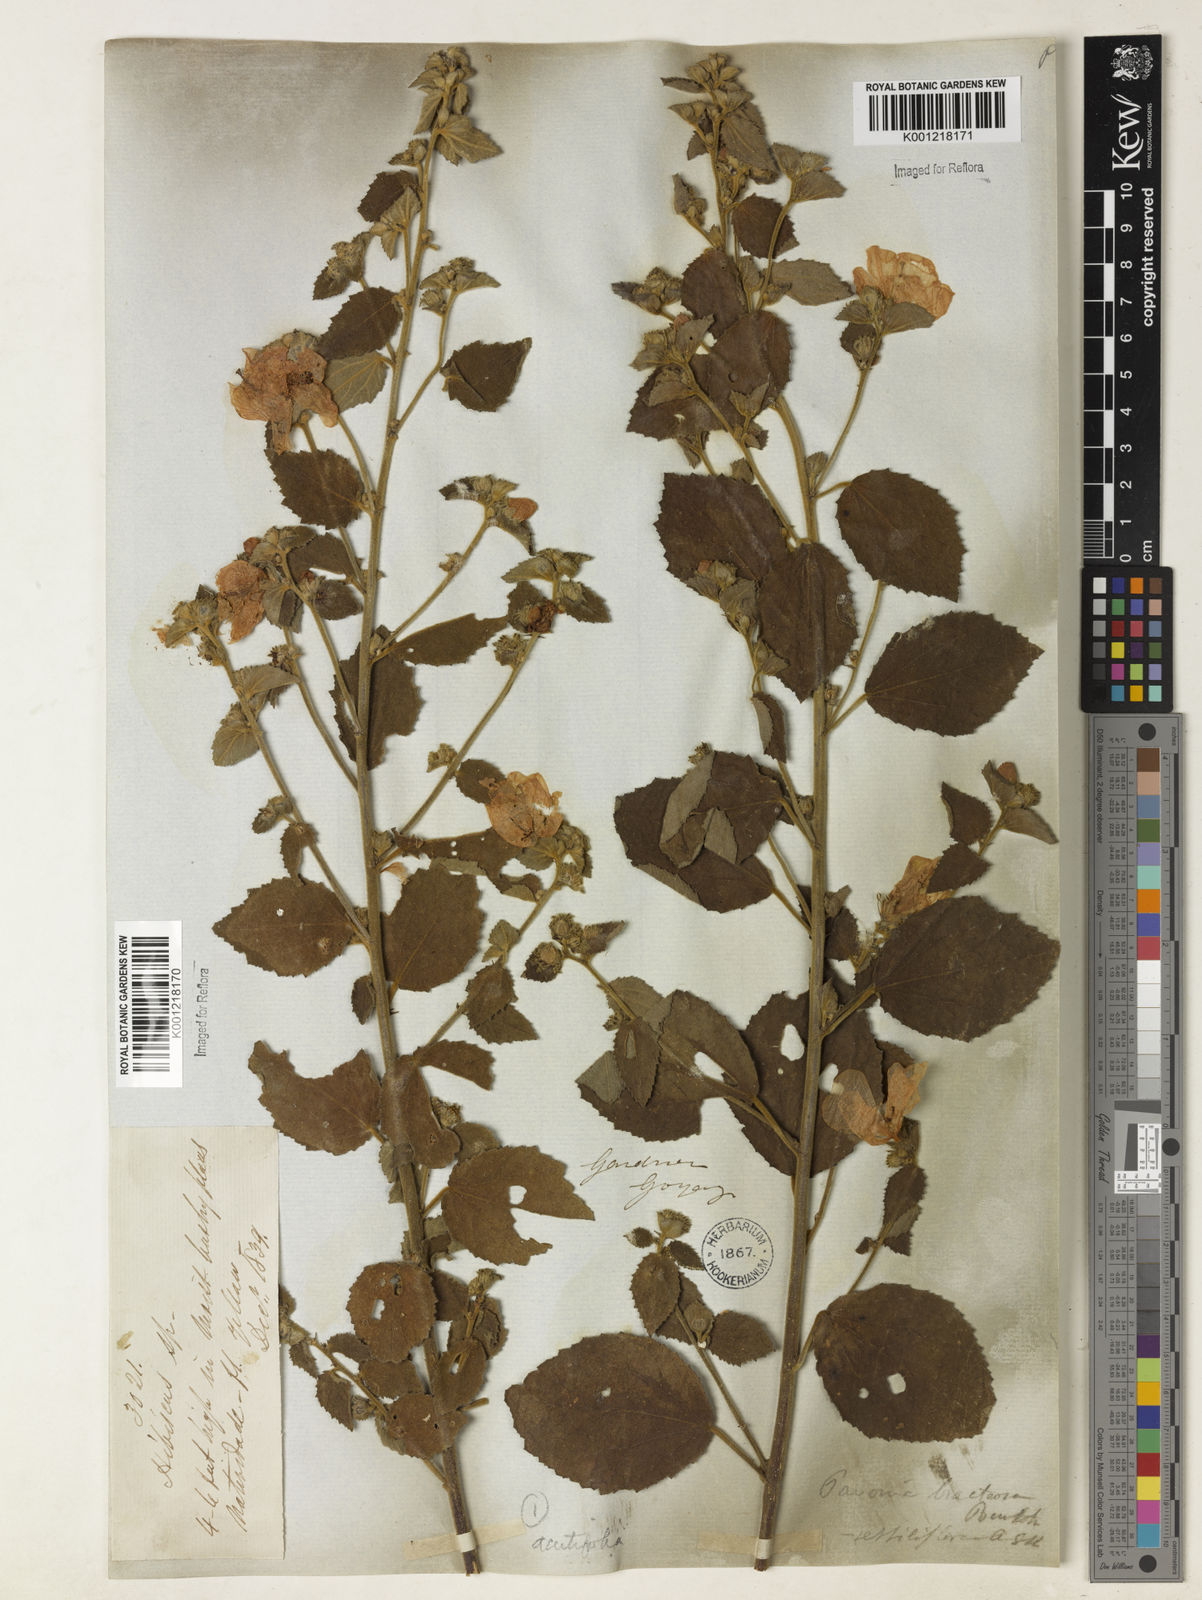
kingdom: Plantae
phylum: Tracheophyta
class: Magnoliopsida
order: Malvales
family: Malvaceae
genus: Peltaea
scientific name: Peltaea
